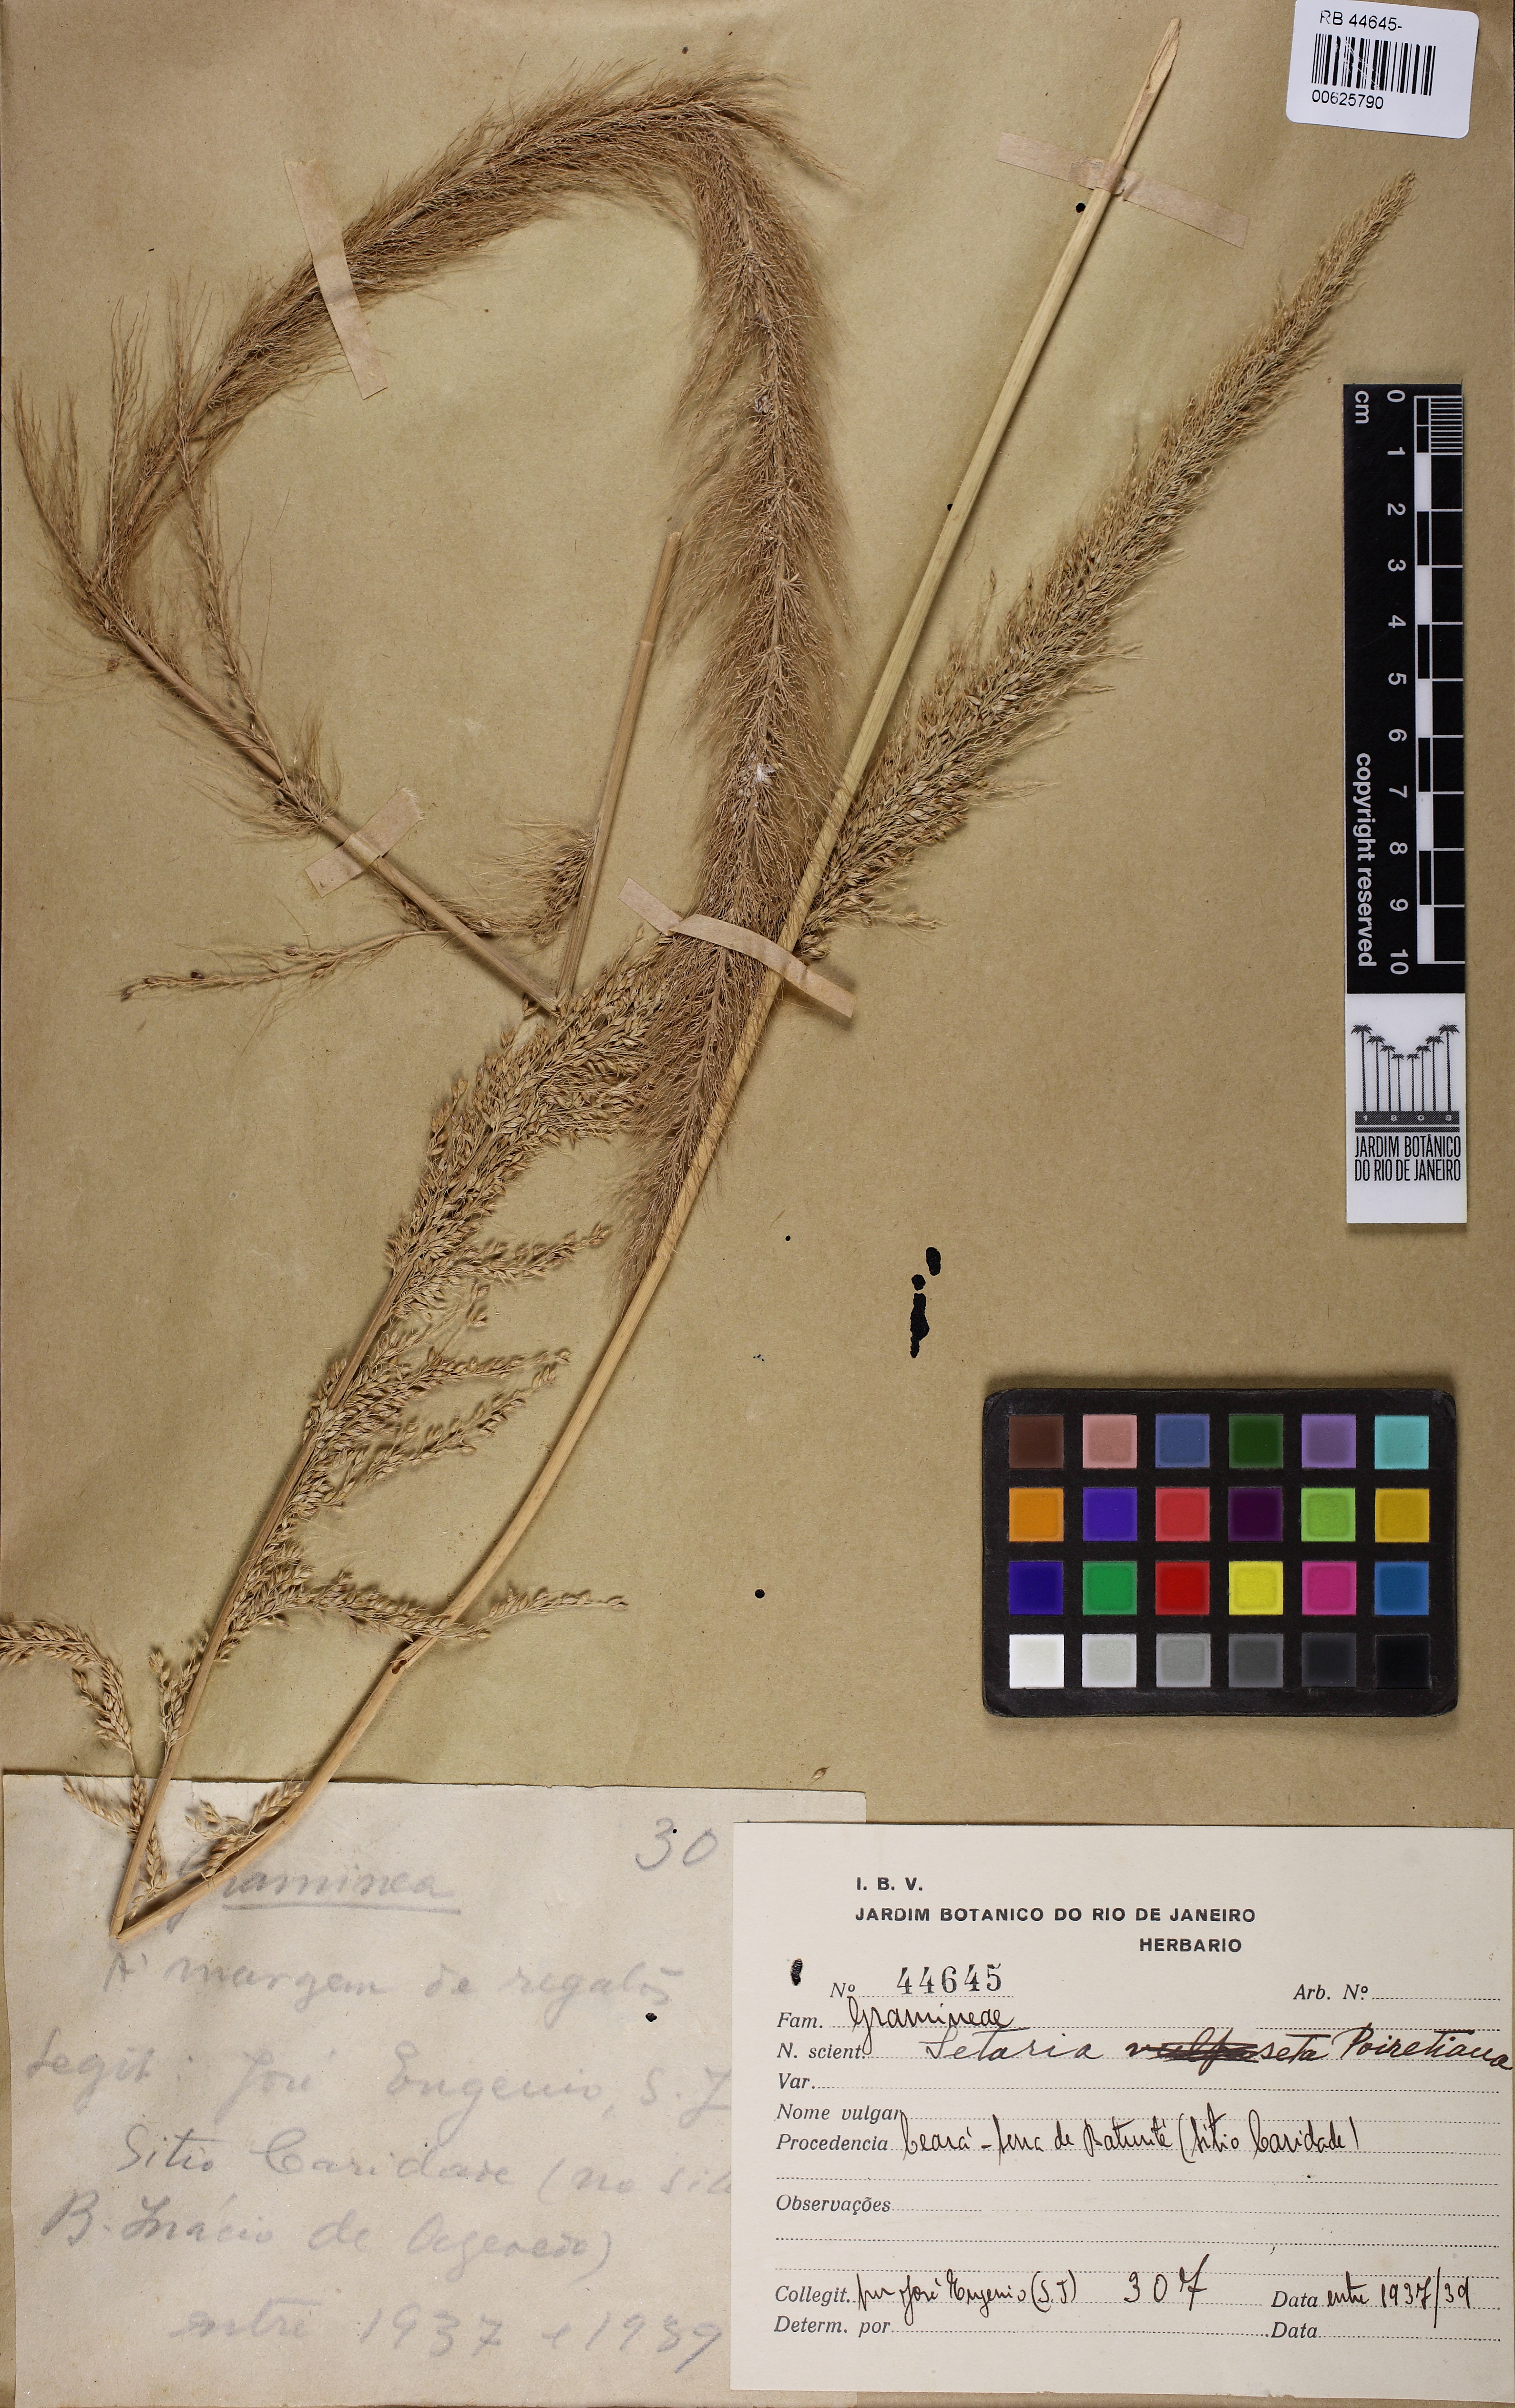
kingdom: Plantae
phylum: Tracheophyta
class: Liliopsida
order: Poales
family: Poaceae
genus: Setaria
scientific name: Setaria poiretiana
